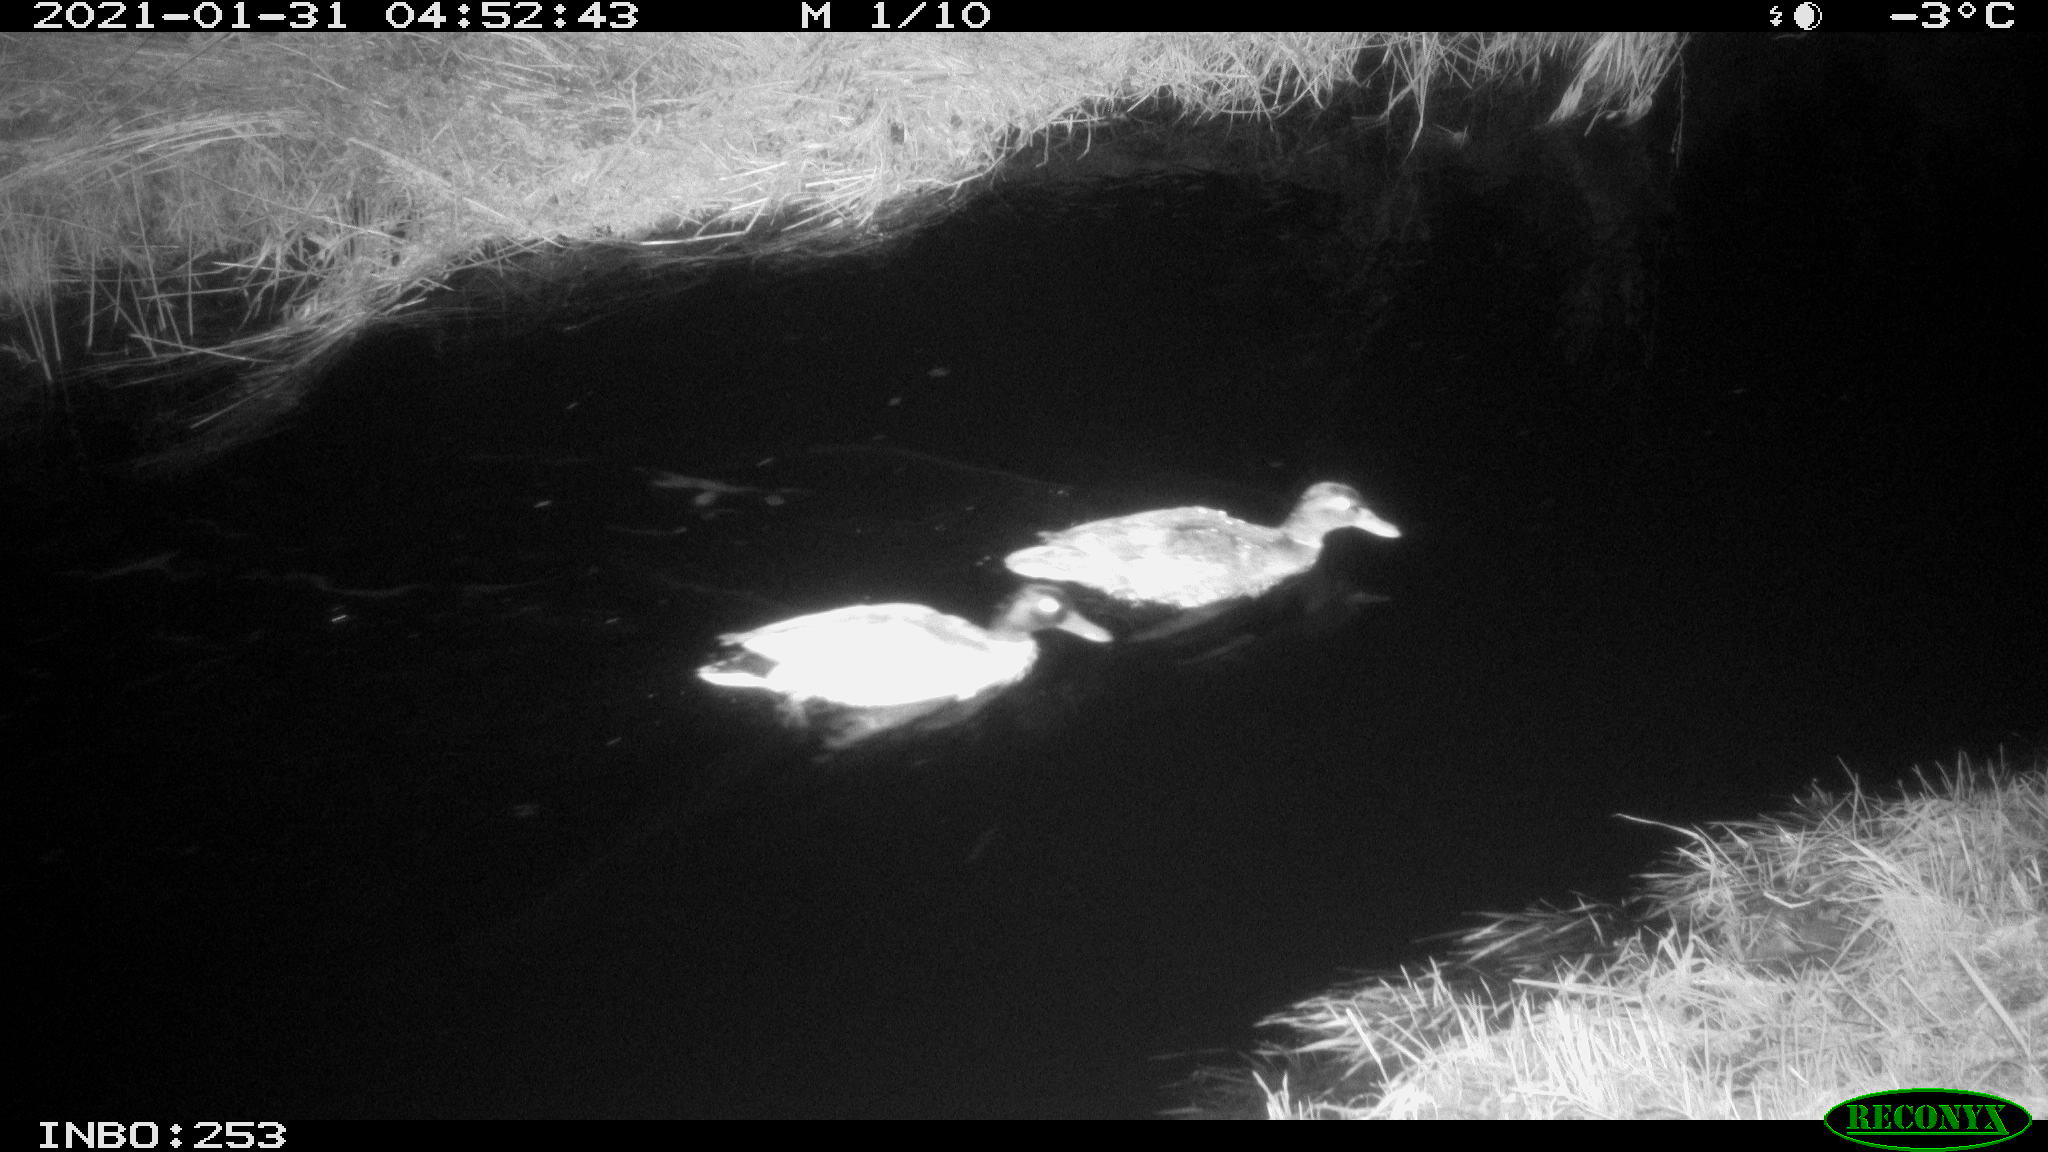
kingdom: Animalia
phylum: Chordata
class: Aves
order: Anseriformes
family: Anatidae
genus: Anas
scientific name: Anas platyrhynchos
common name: Mallard
